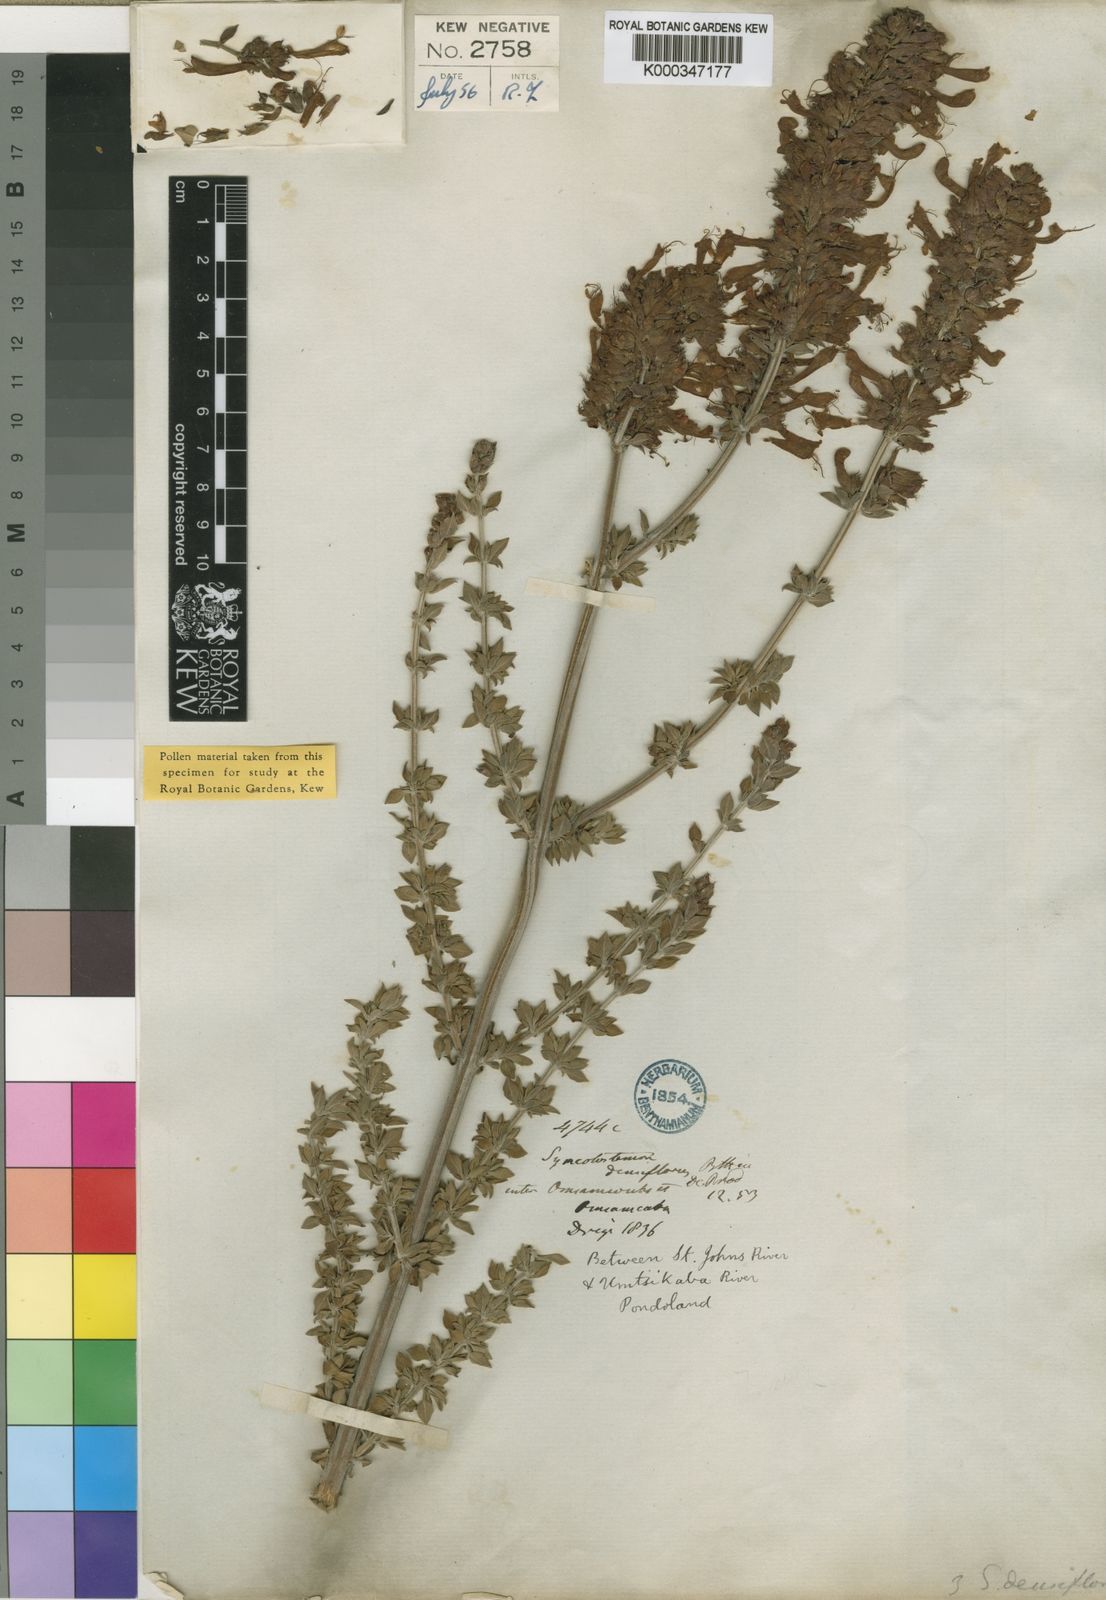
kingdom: Plantae
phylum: Tracheophyta
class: Magnoliopsida
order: Lamiales
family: Lamiaceae
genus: Syncolostemon
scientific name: Syncolostemon densiflorus
